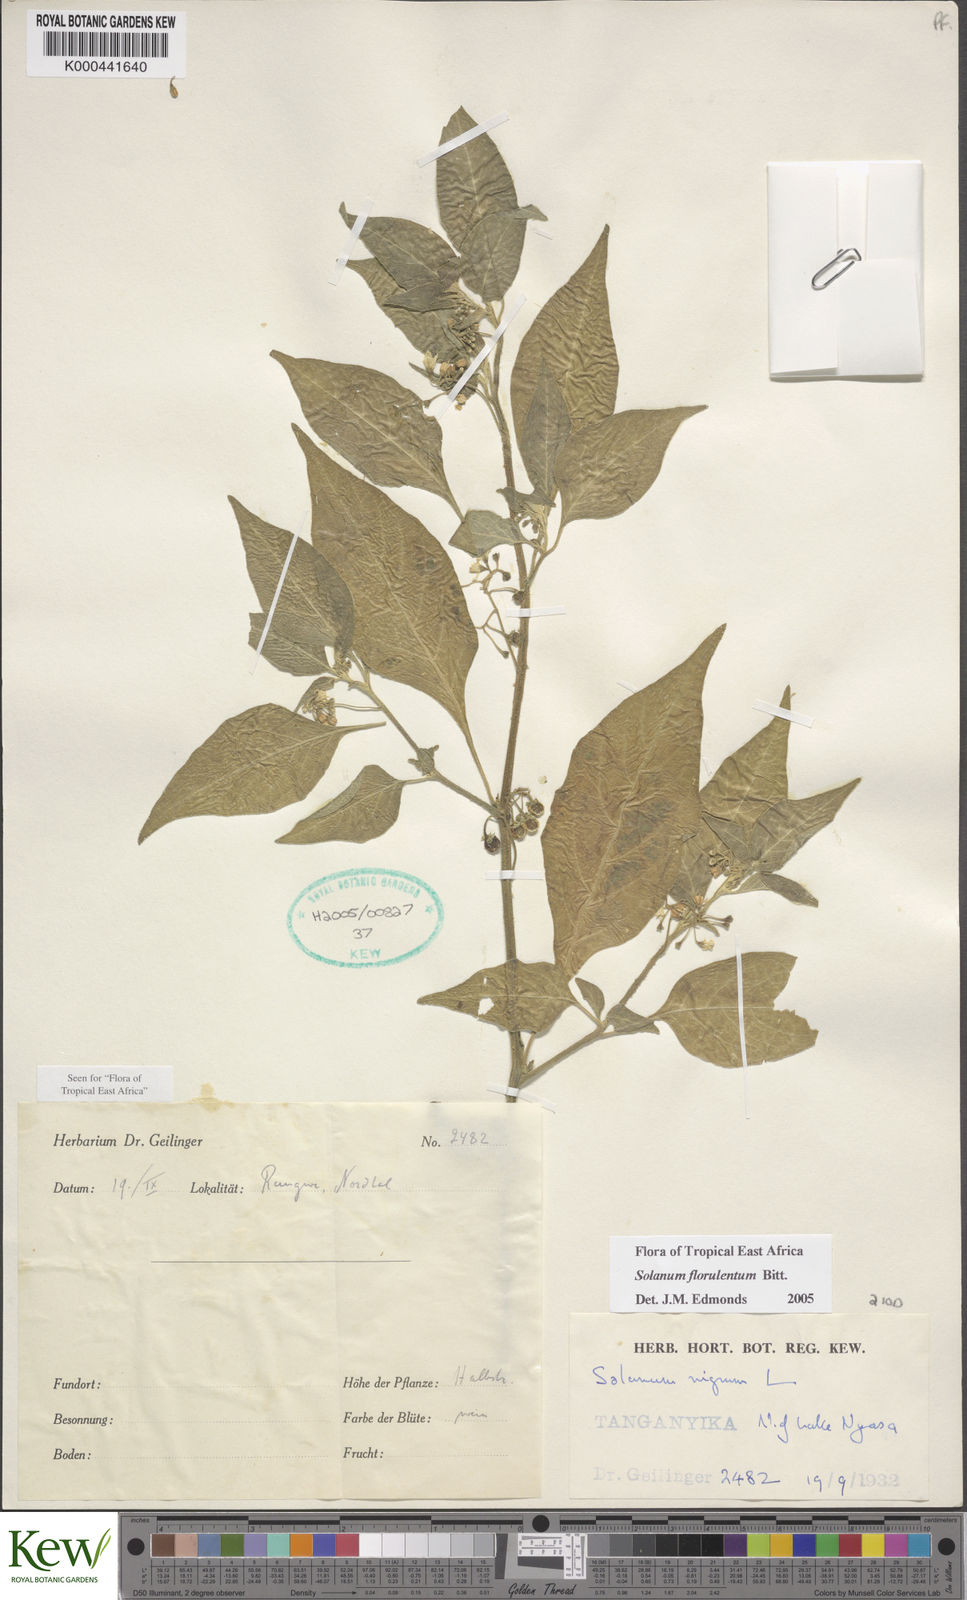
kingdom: Plantae
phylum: Tracheophyta
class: Magnoliopsida
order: Solanales
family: Solanaceae
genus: Solanum
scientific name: Solanum tarderemotum
